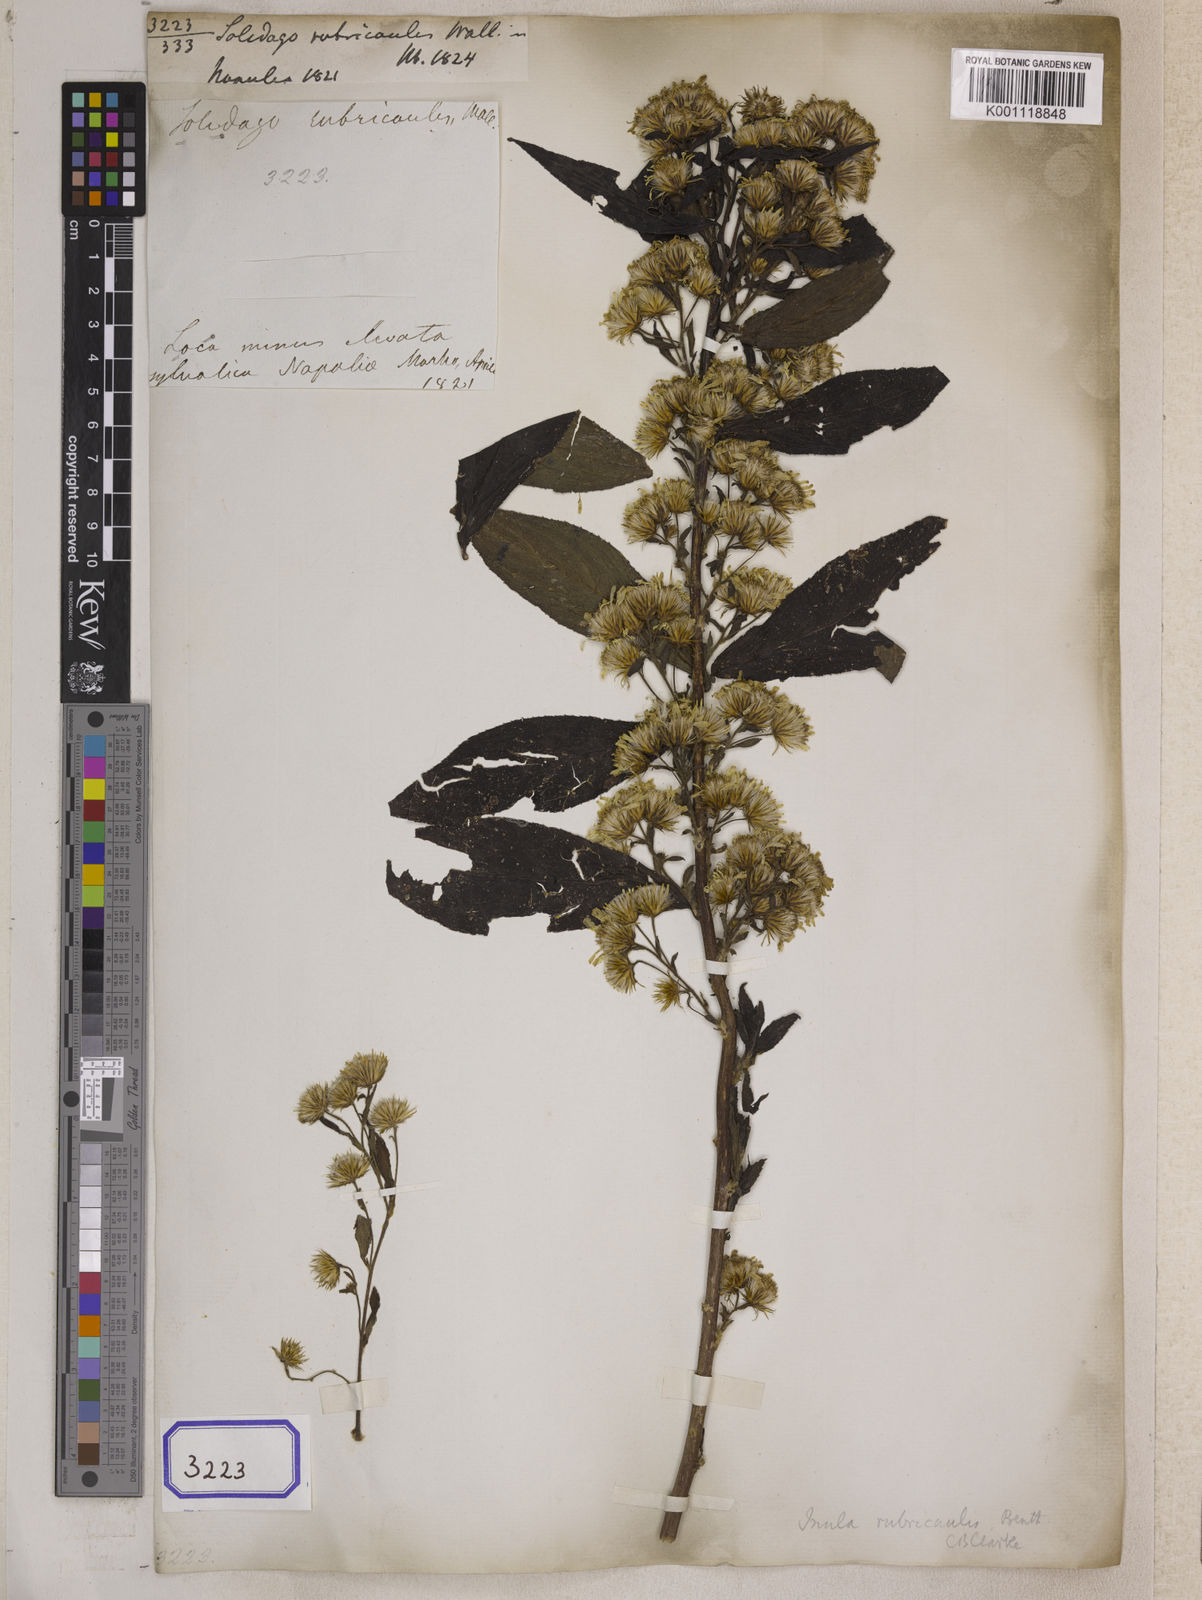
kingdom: Plantae
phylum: Tracheophyta
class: Magnoliopsida
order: Asterales
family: Asteraceae
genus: Duhaldea
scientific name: Duhaldea rubricaulis
